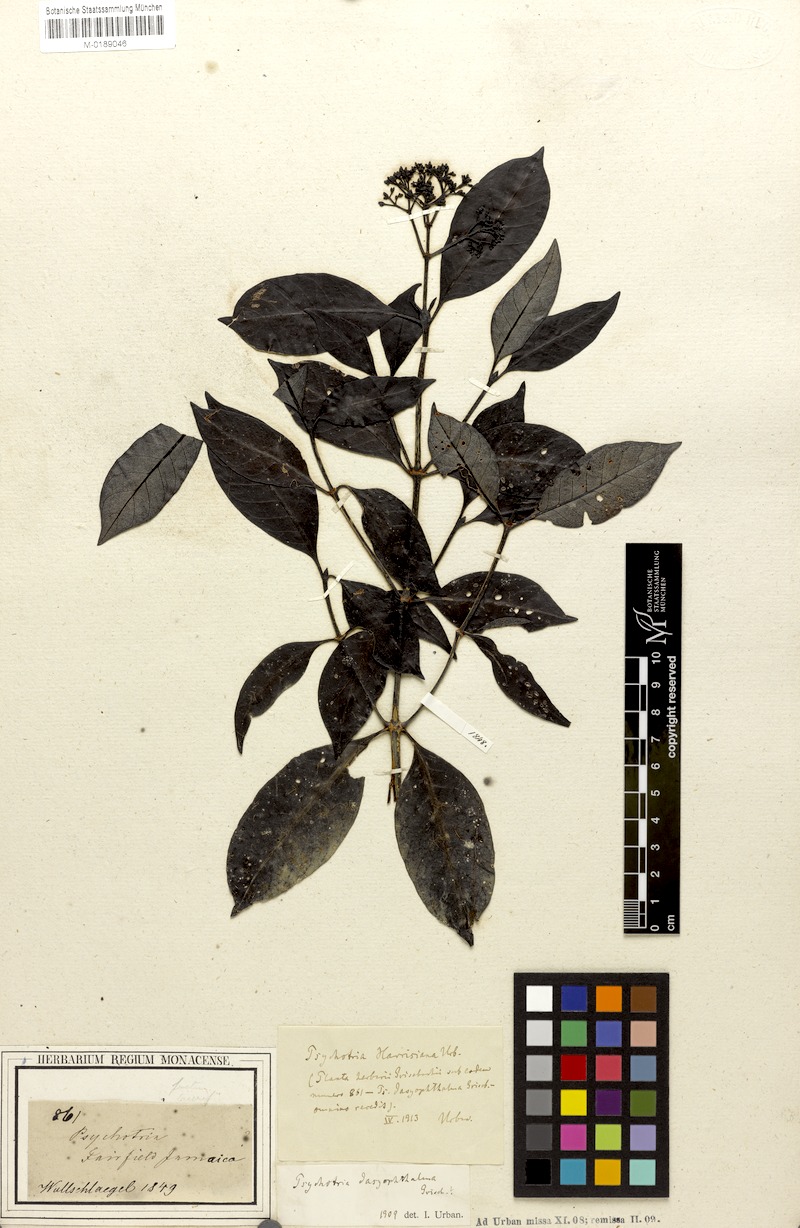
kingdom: Plantae
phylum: Tracheophyta
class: Magnoliopsida
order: Gentianales
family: Rubiaceae
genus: Psychotria
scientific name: Psychotria sloanei
